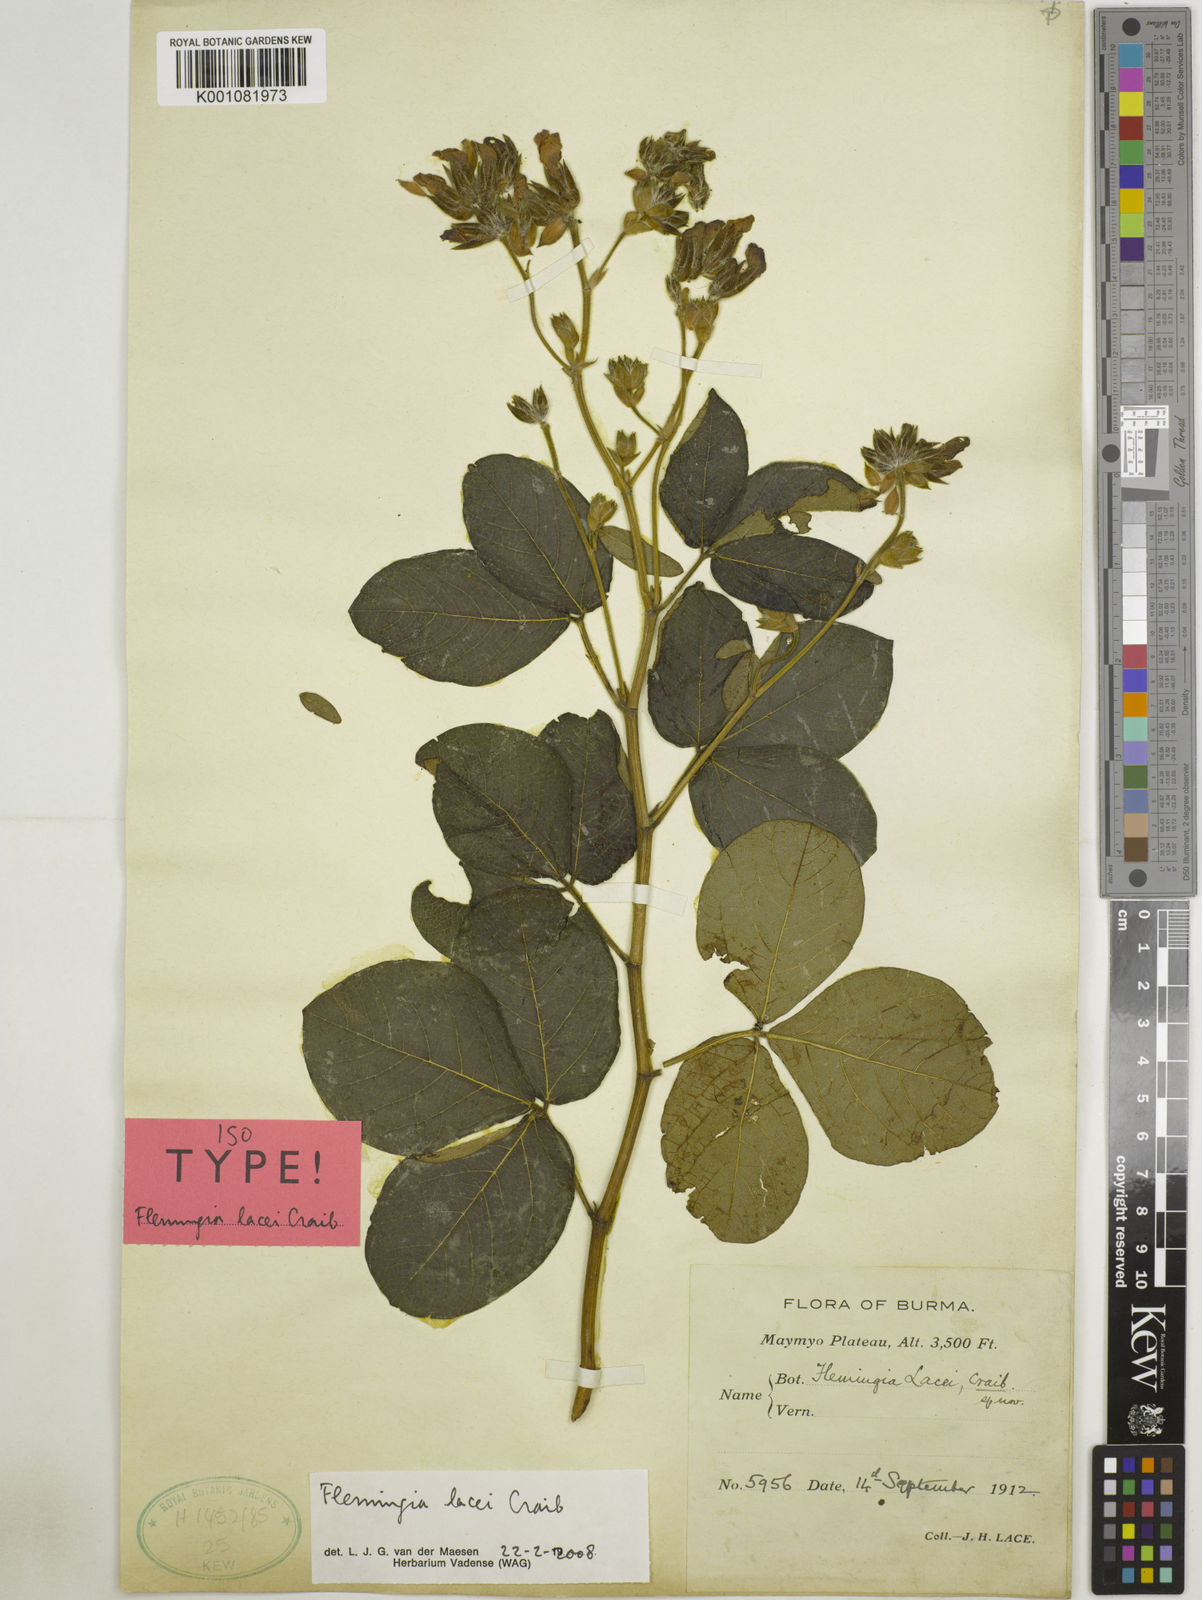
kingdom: Plantae
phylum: Tracheophyta
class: Magnoliopsida
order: Fabales
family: Fabaceae
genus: Flemingia
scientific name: Flemingia lacei
